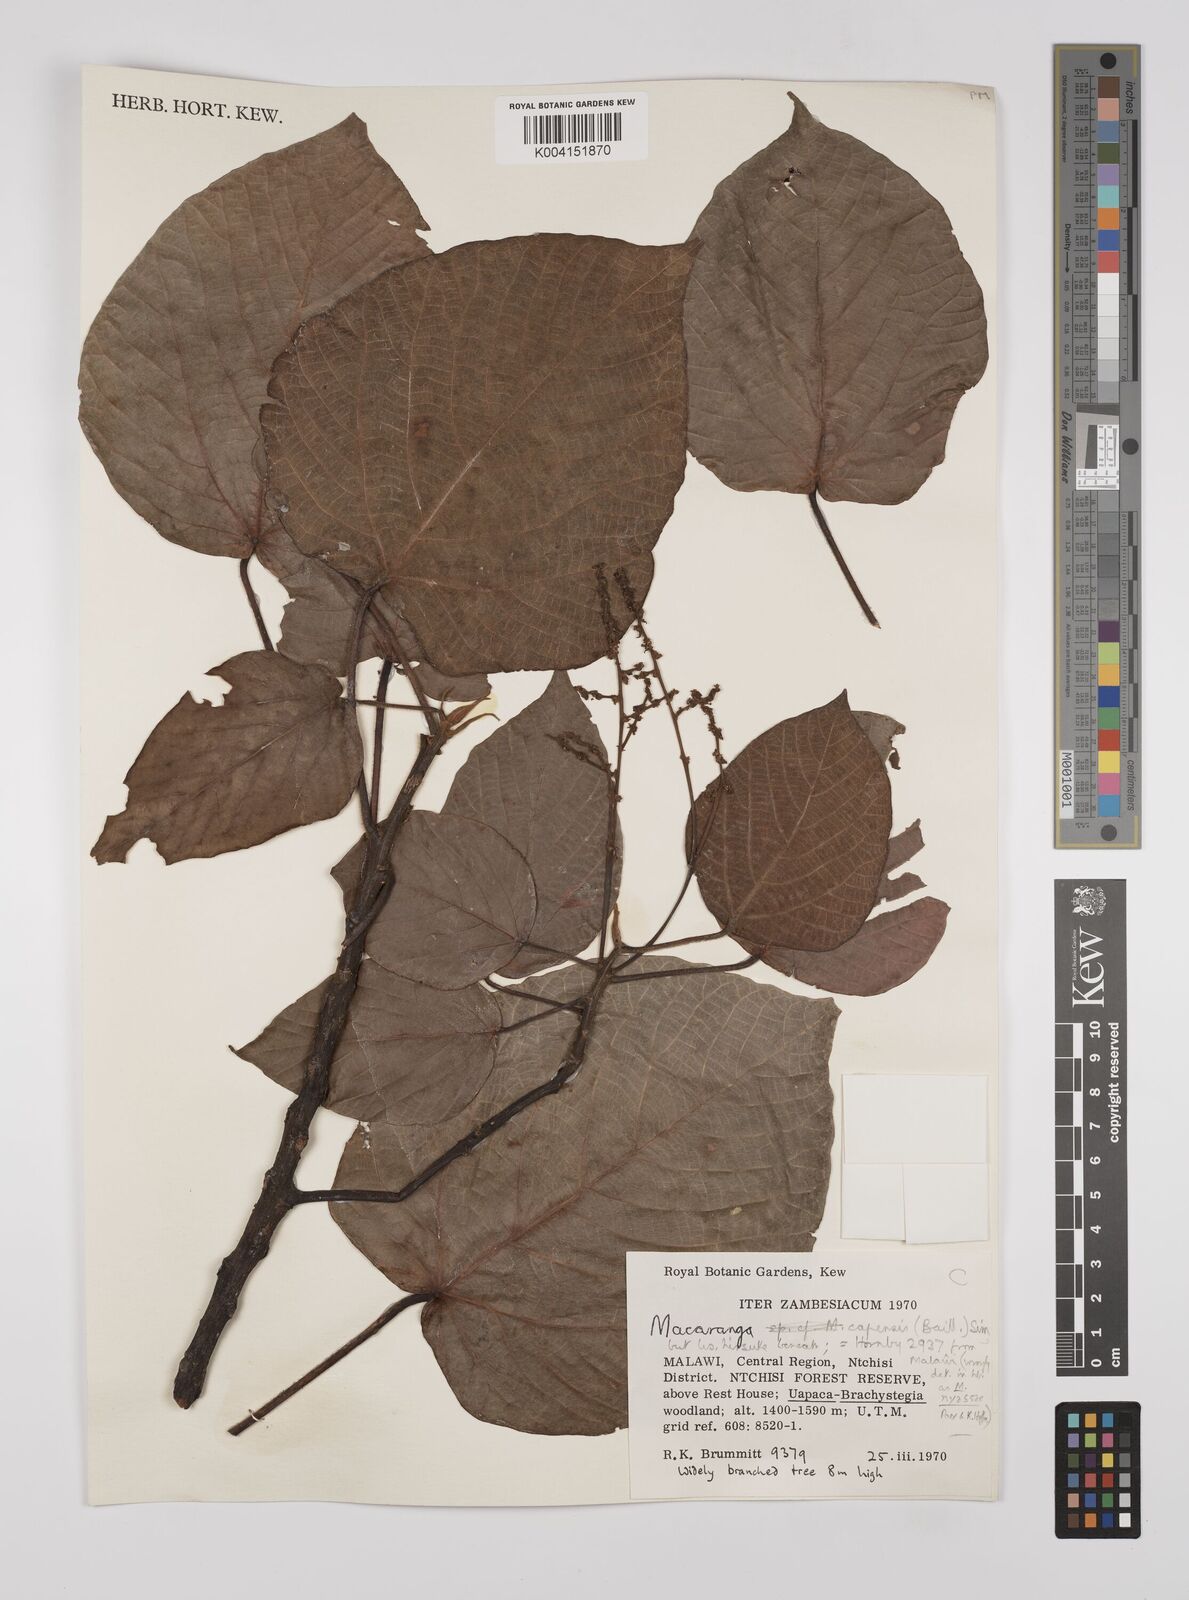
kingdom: Plantae
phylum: Tracheophyta
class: Magnoliopsida
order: Malpighiales
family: Euphorbiaceae
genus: Macaranga
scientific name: Macaranga capensis
